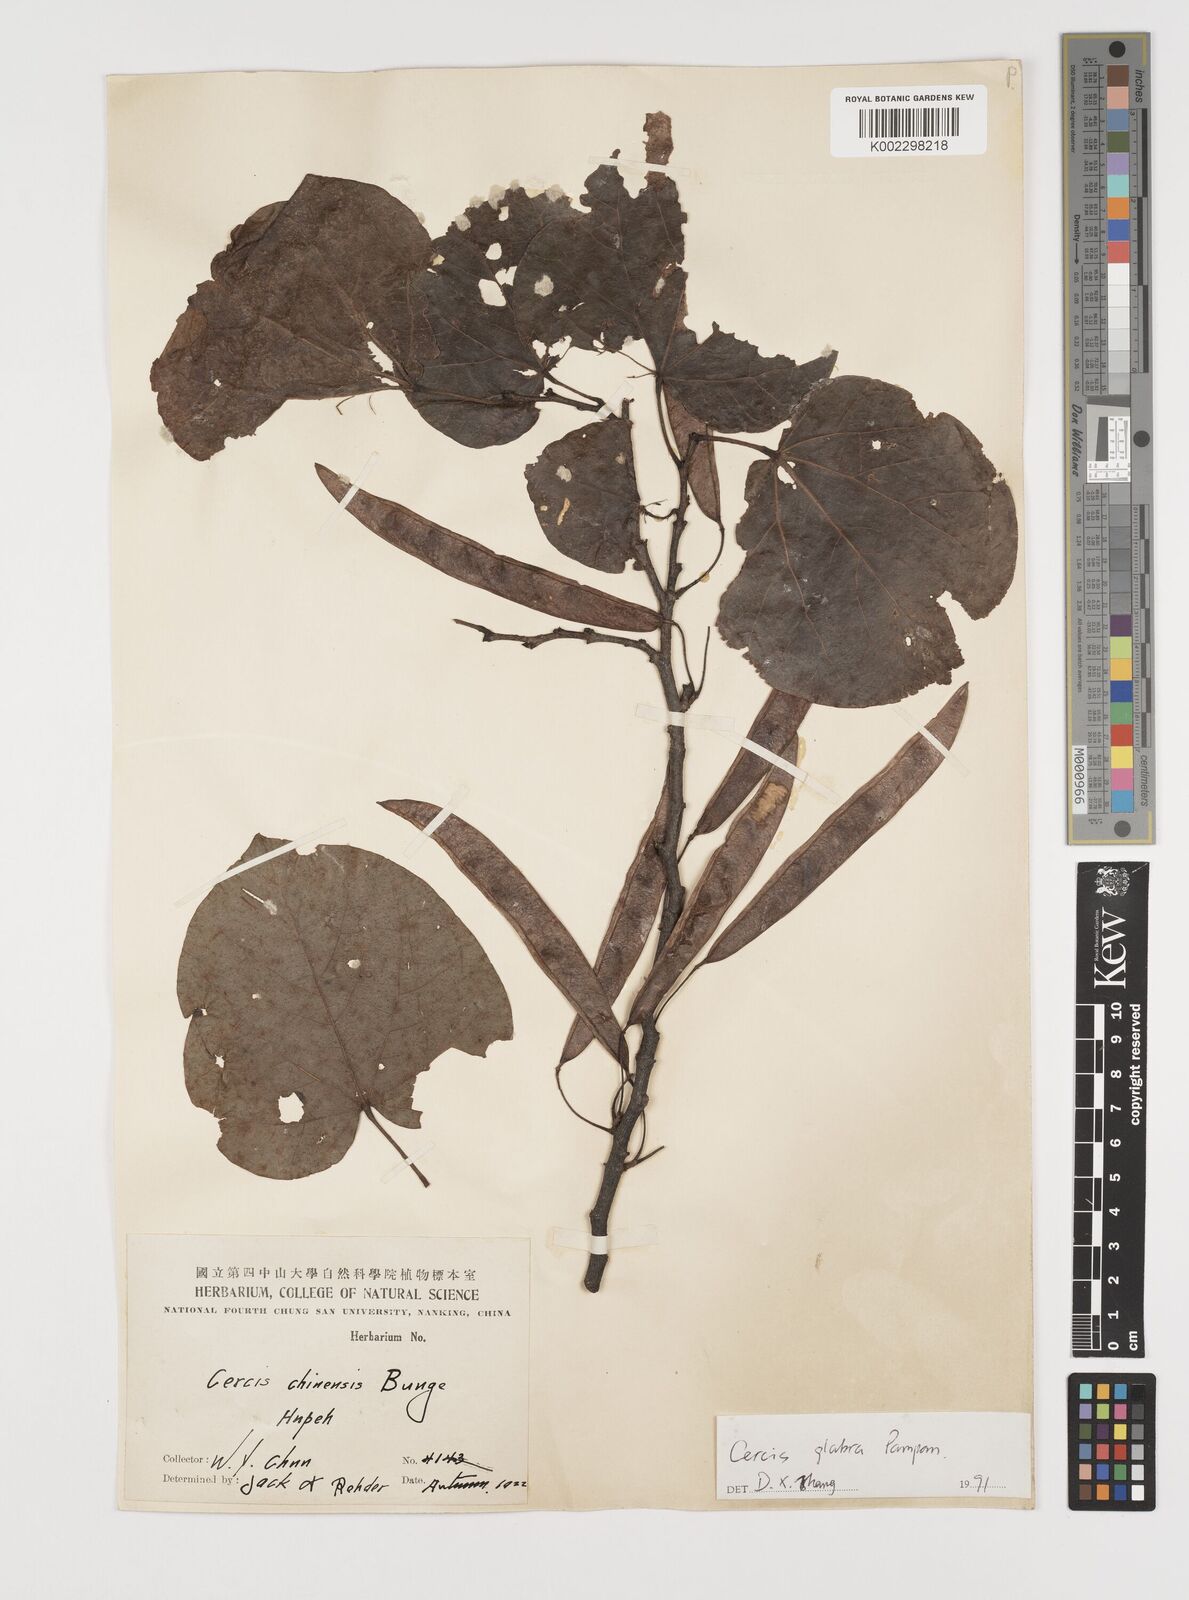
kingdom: Plantae
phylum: Tracheophyta
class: Magnoliopsida
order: Fabales
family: Fabaceae
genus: Cercis
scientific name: Cercis glabra
